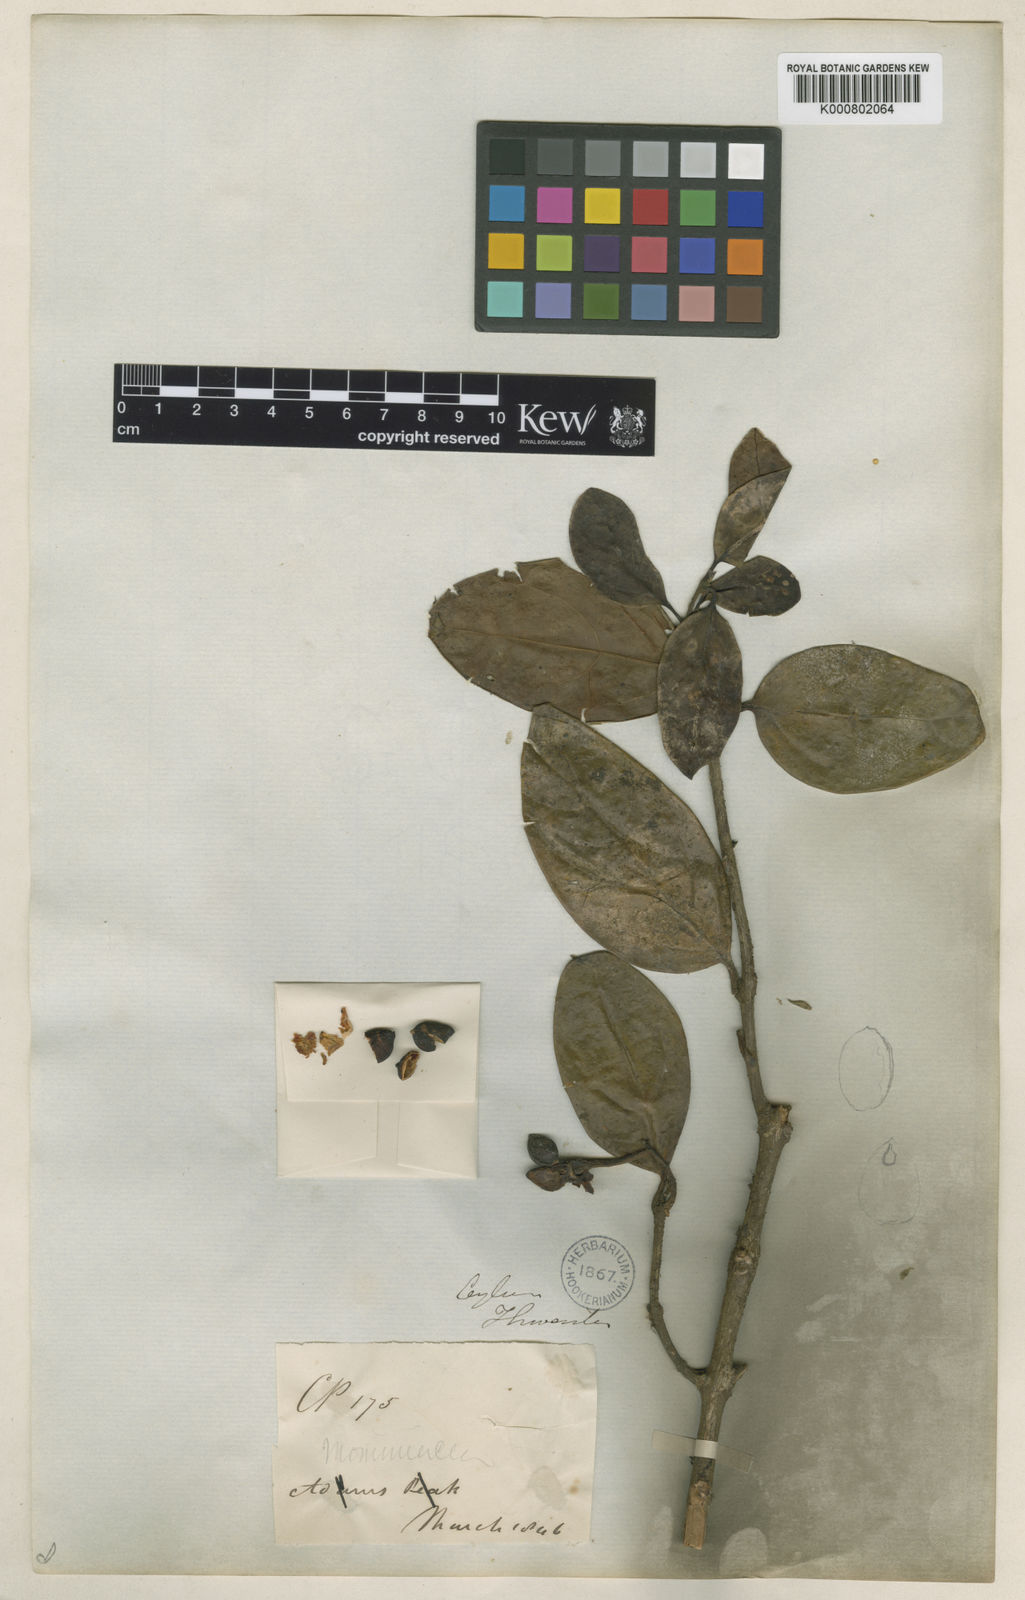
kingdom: Plantae
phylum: Tracheophyta
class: Magnoliopsida
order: Laurales
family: Monimiaceae
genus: Hortonia
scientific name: Hortonia ovalifolia
